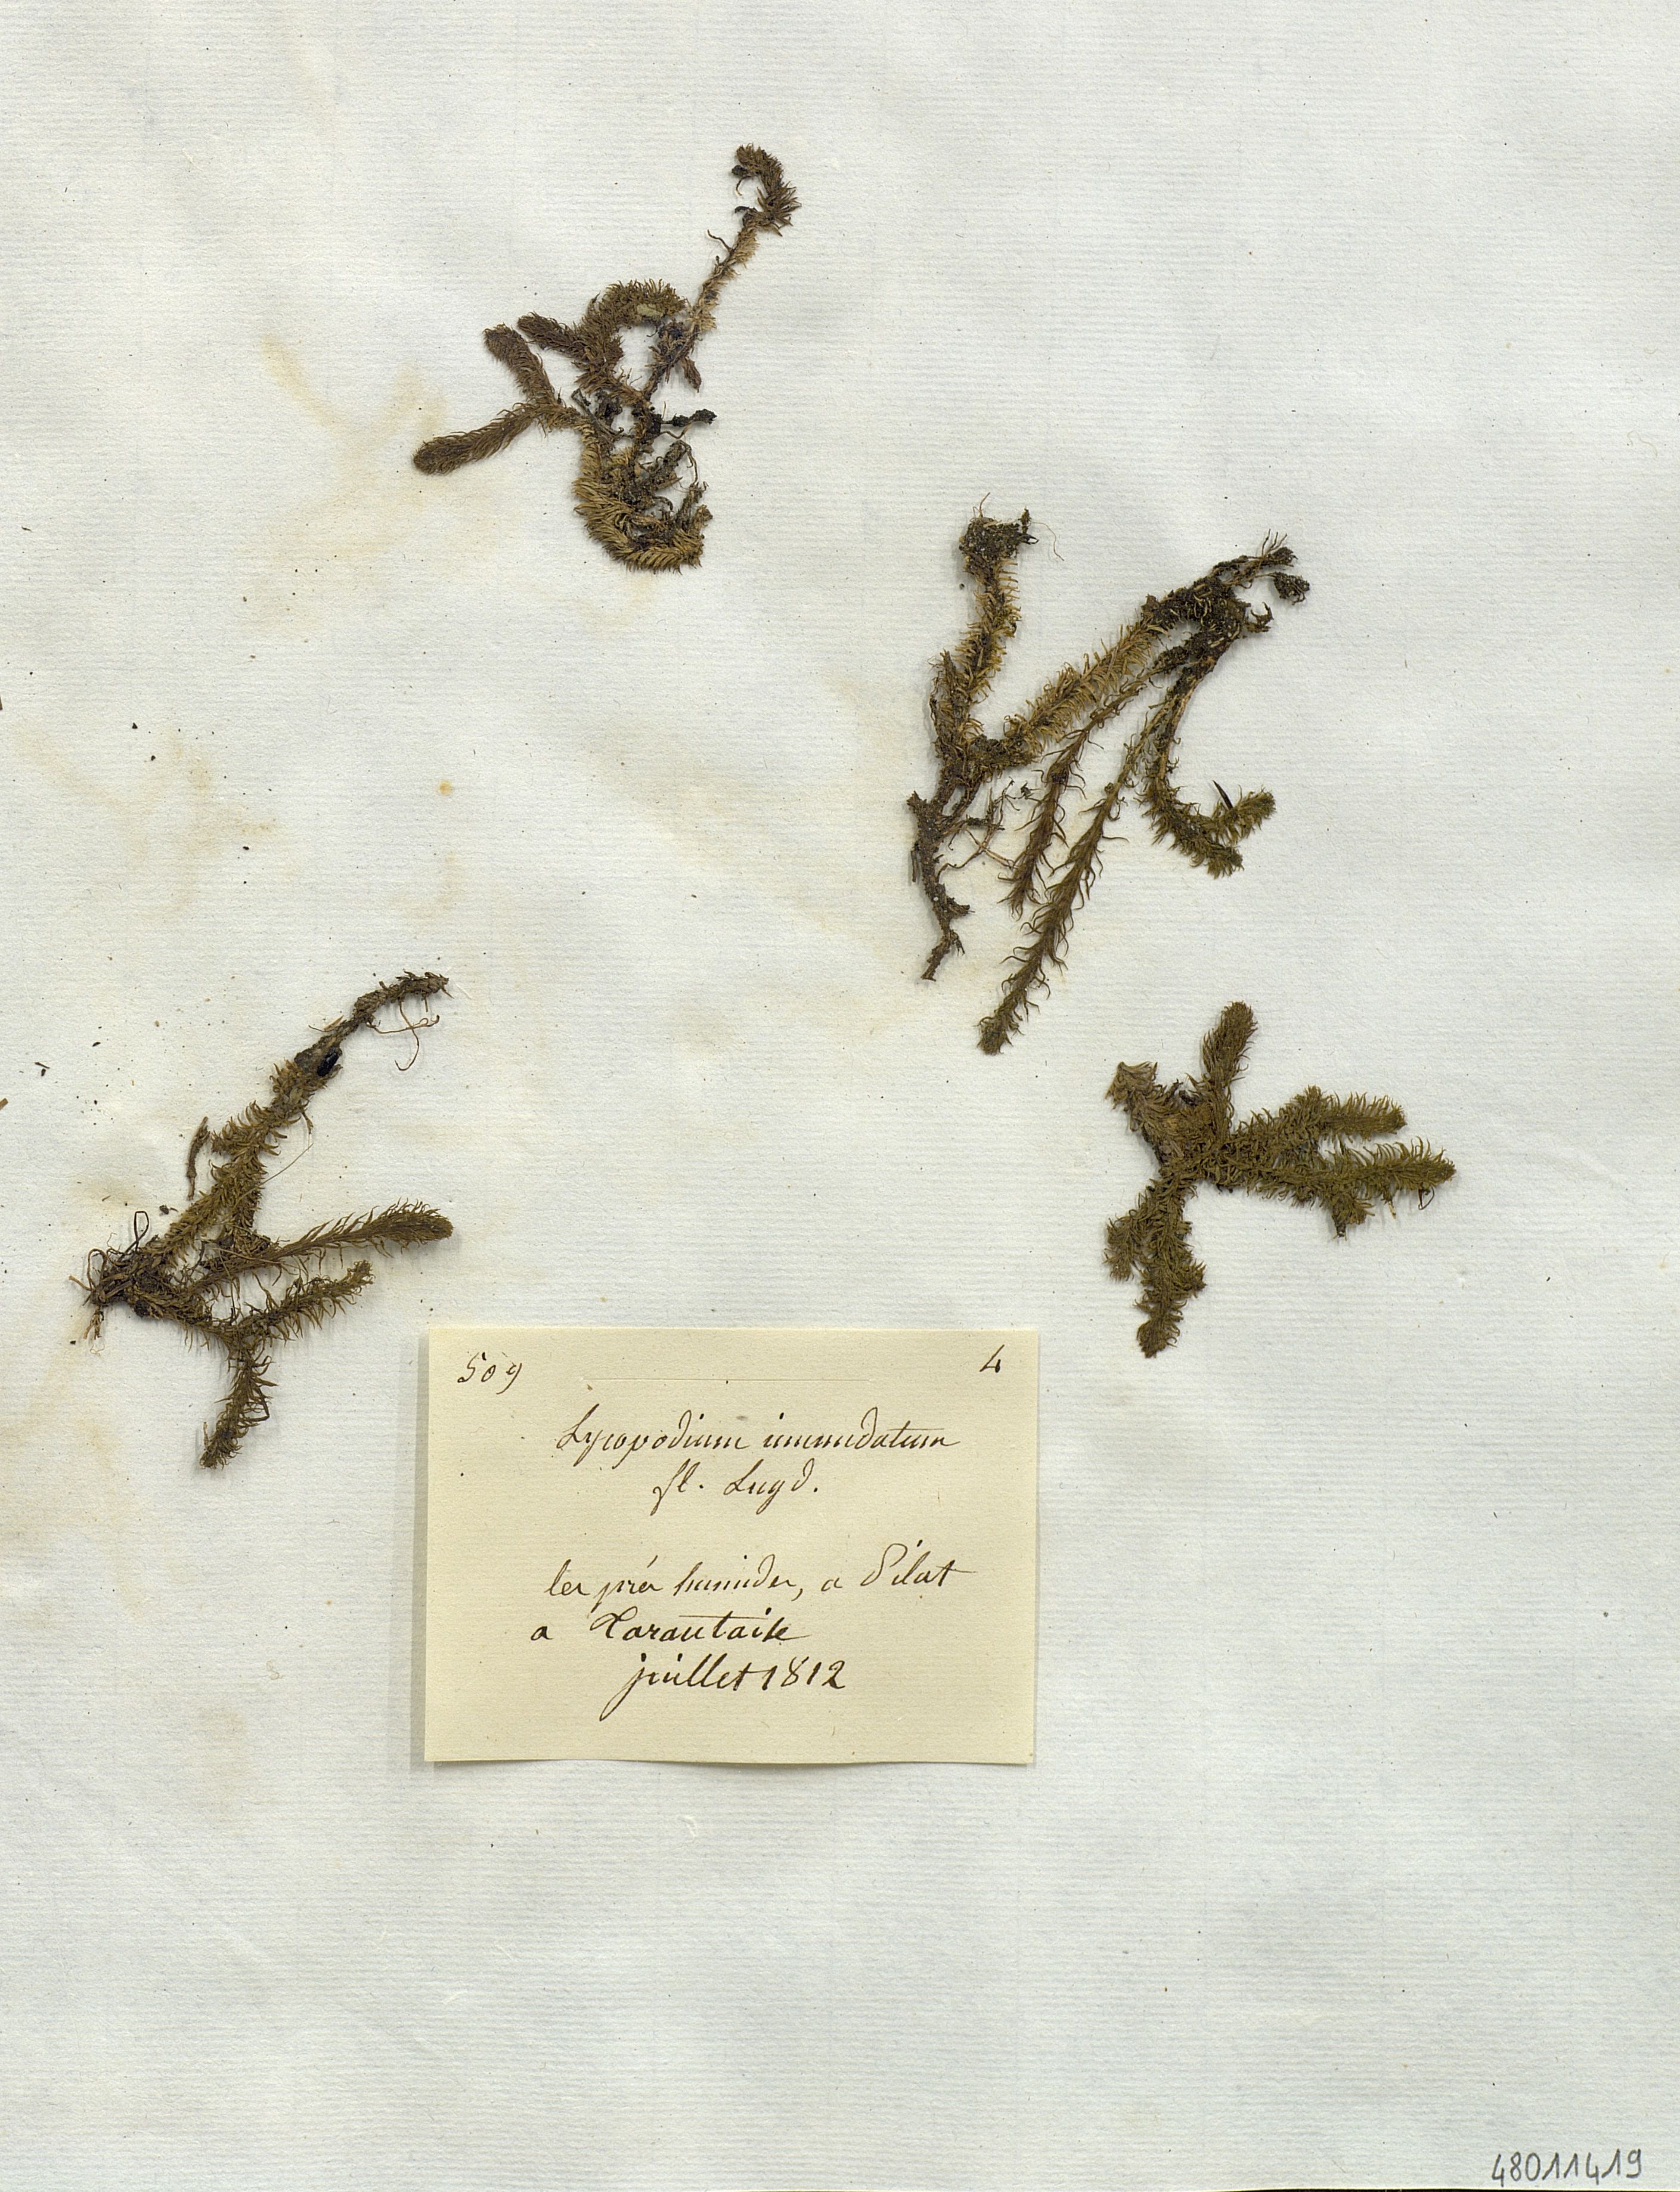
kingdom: Plantae
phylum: Tracheophyta
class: Lycopodiopsida
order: Lycopodiales
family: Lycopodiaceae
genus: Lycopodiella
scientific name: Lycopodiella inundata
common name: Marsh clubmoss
